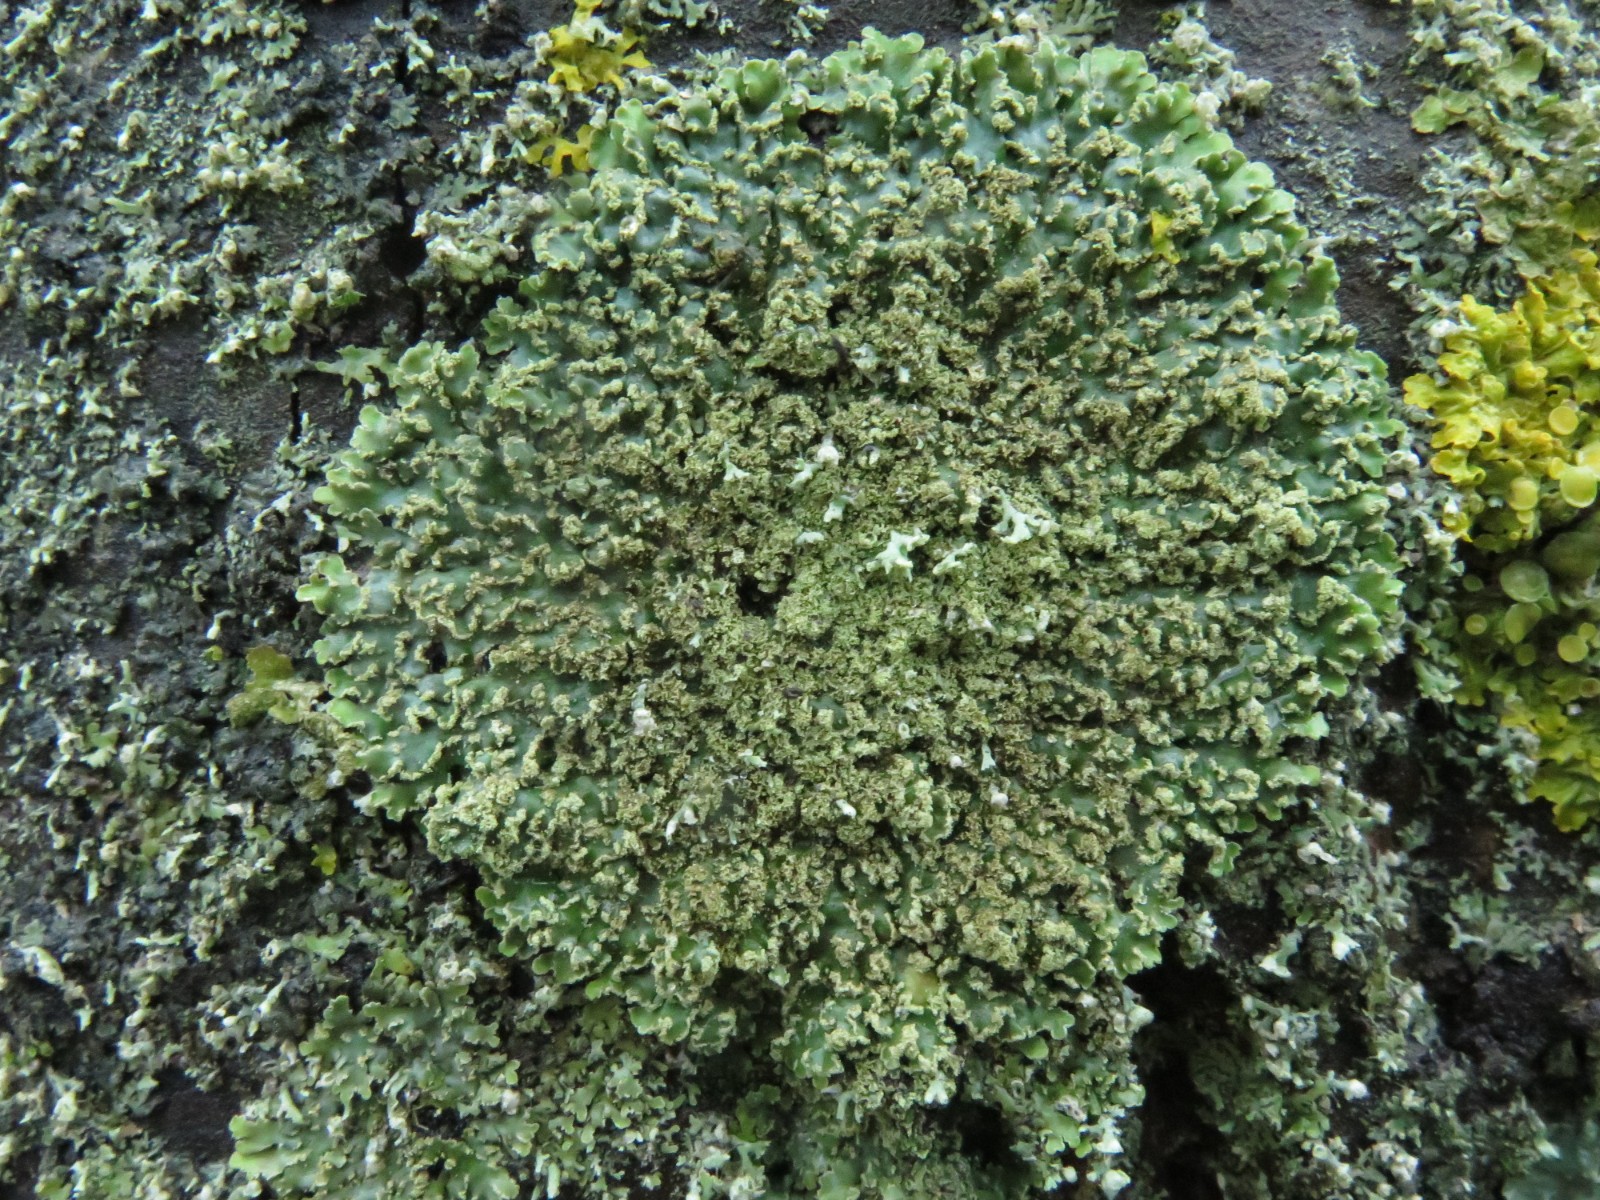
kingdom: Fungi
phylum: Ascomycota
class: Lecanoromycetes
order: Caliciales
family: Physciaceae
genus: Physconia
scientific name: Physconia perisidiosa
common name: liden dugrosetlav
